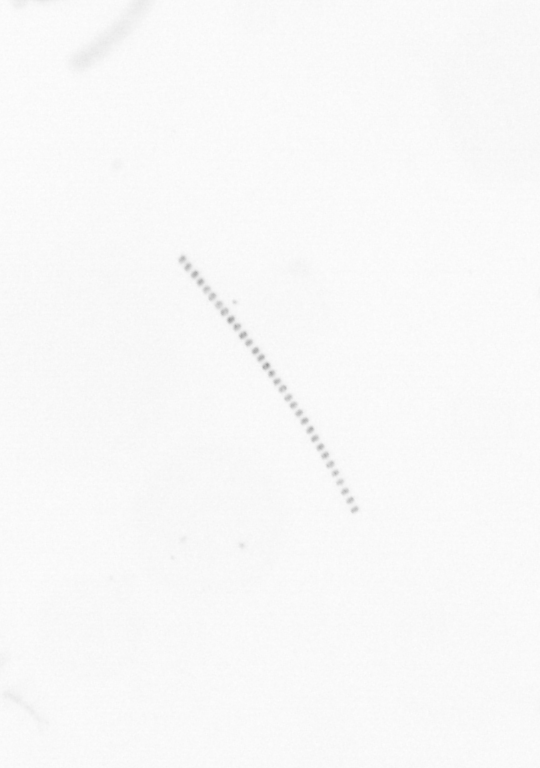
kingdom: Chromista
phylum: Ochrophyta
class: Bacillariophyceae
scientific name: Bacillariophyceae
